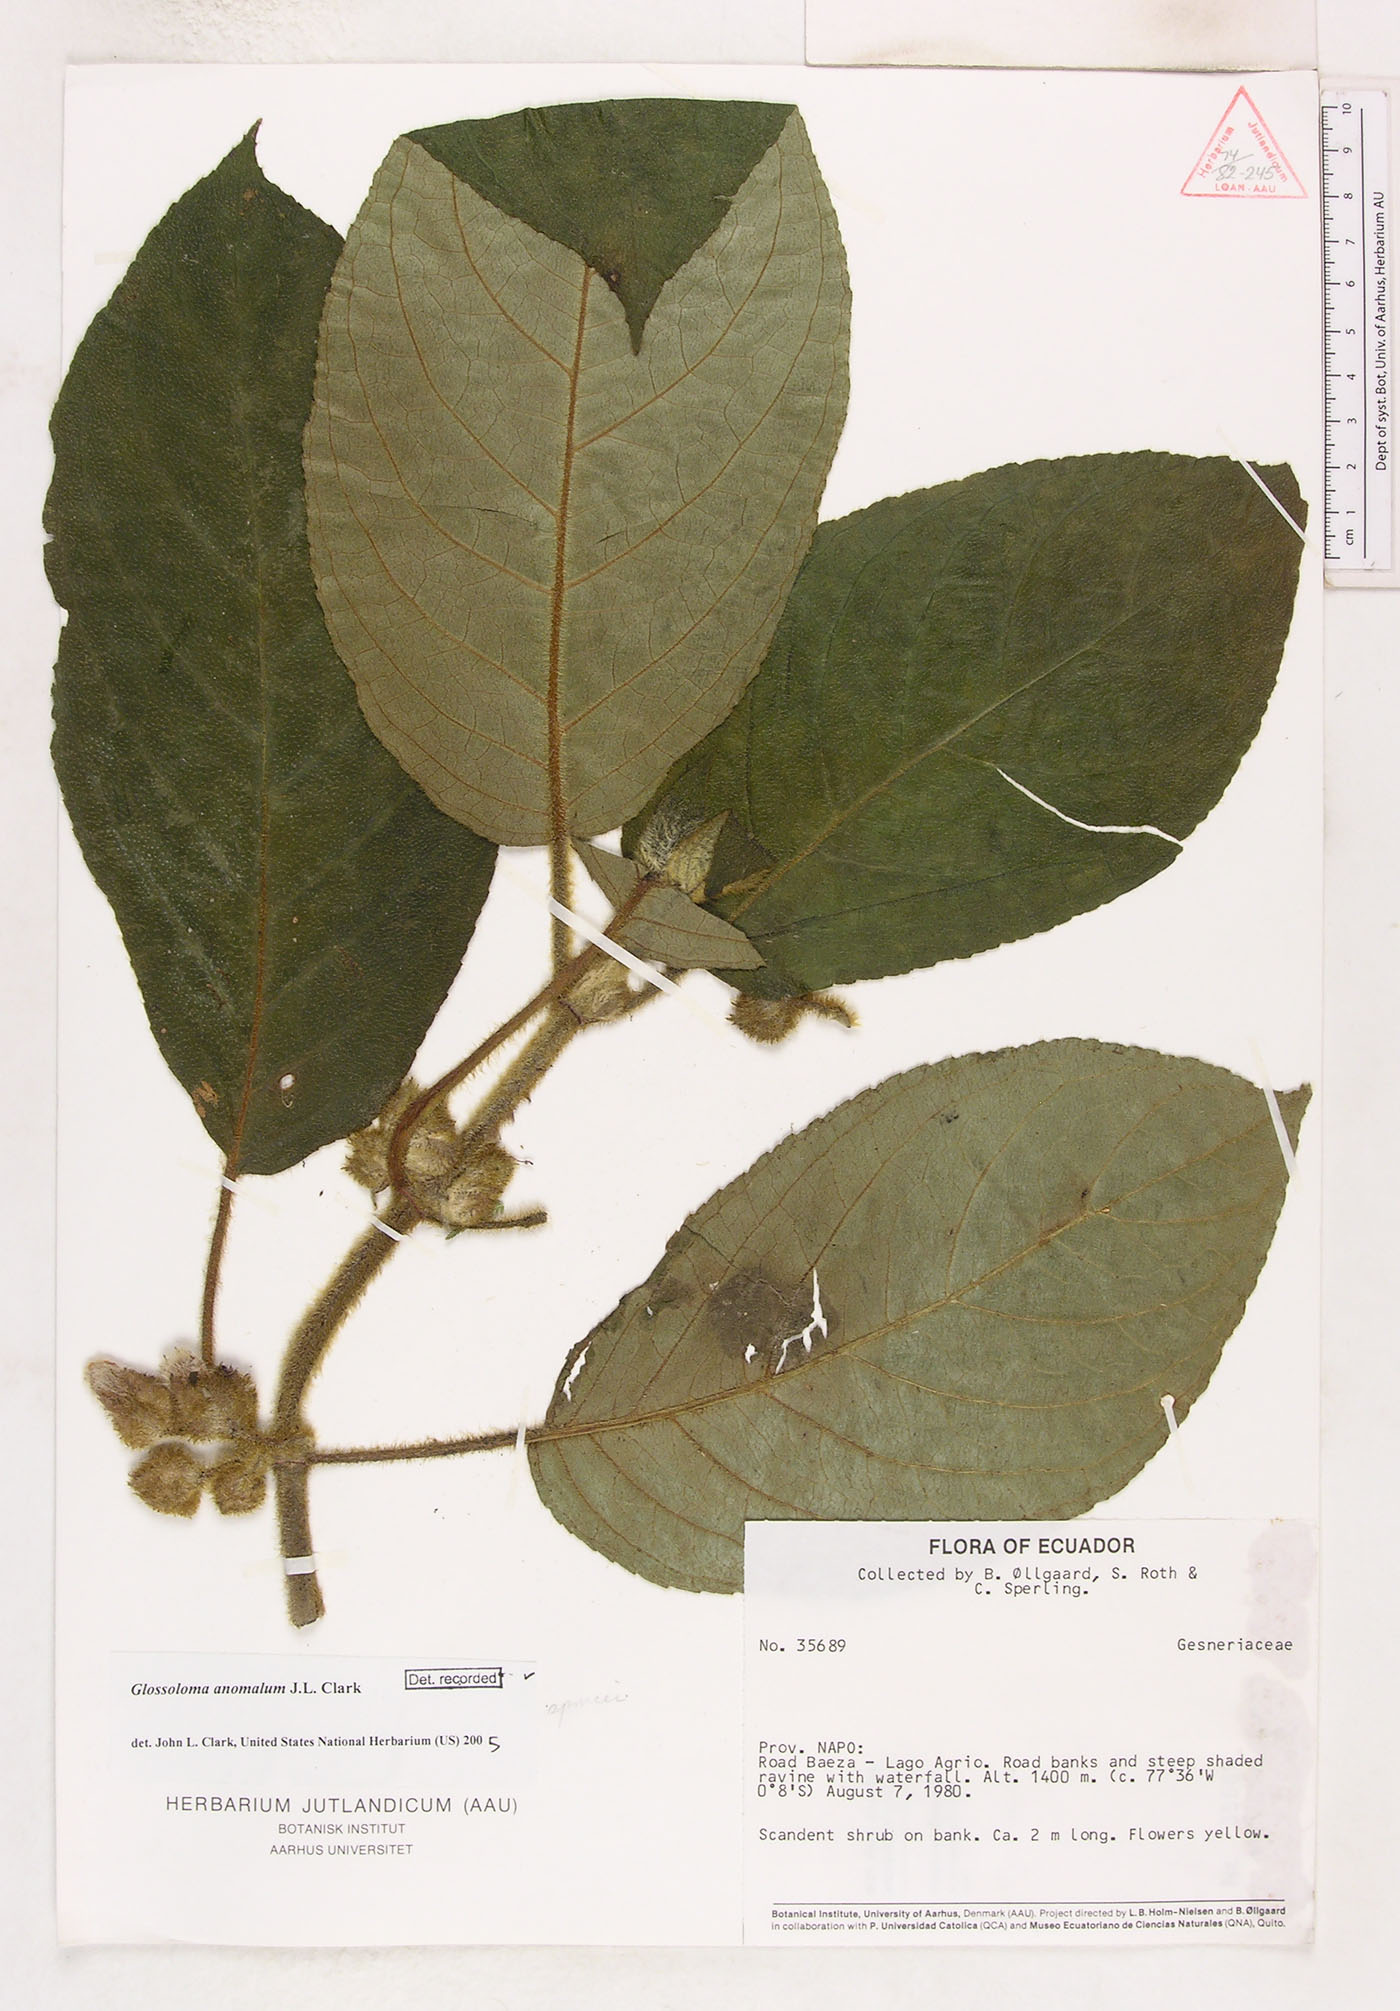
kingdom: Plantae
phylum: Tracheophyta
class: Magnoliopsida
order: Lamiales
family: Gesneriaceae
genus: Glossoloma
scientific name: Glossoloma anomalum
